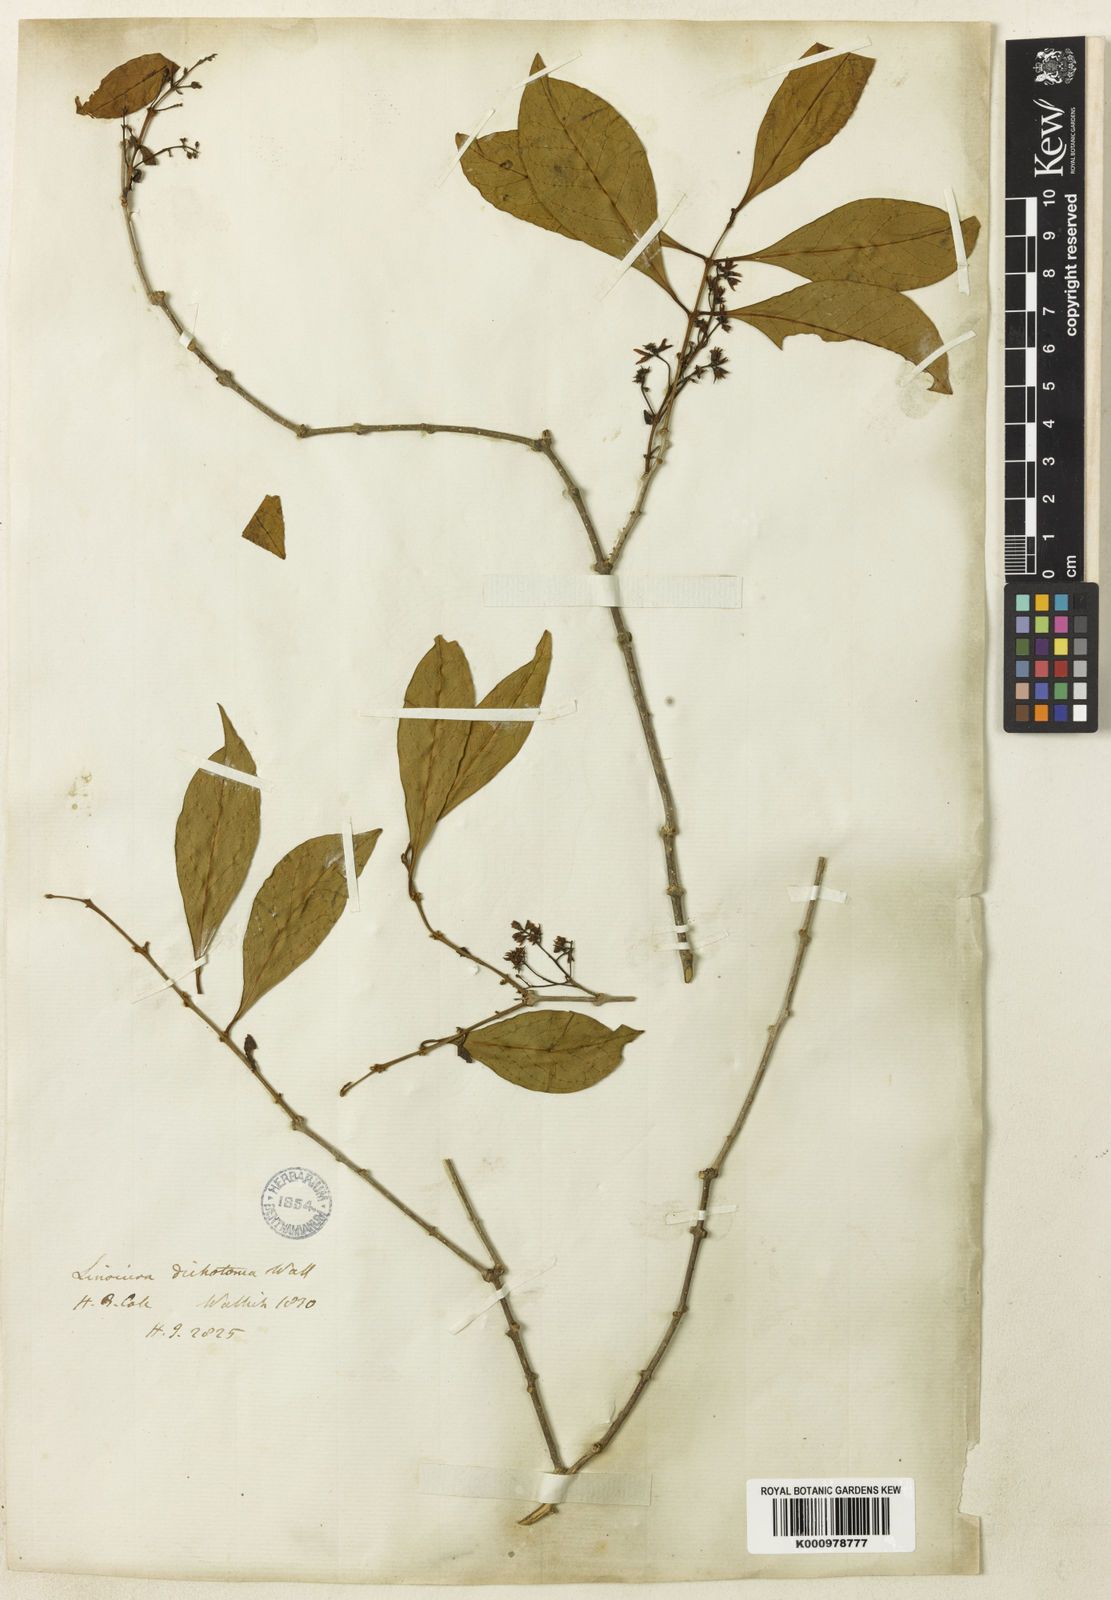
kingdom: Plantae
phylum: Tracheophyta
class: Magnoliopsida
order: Lamiales
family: Oleaceae
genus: Chionanthus
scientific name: Chionanthus zeylanicus
